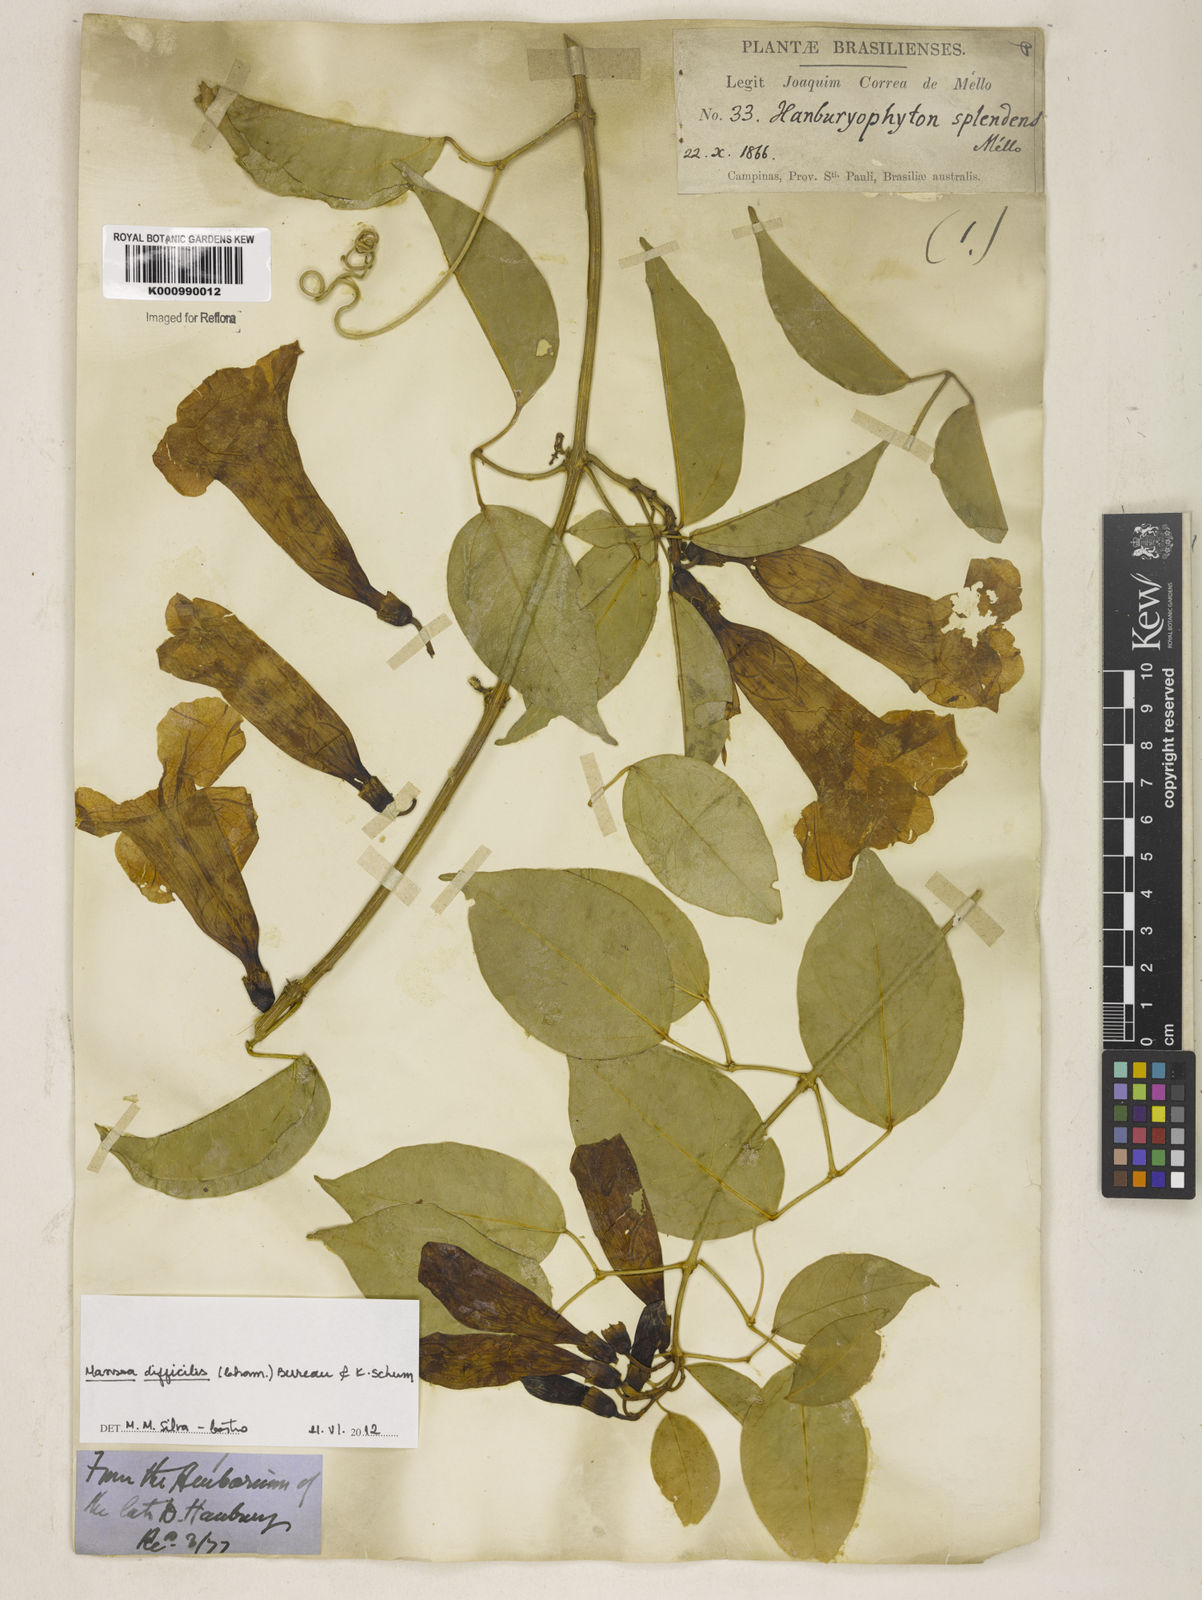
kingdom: Plantae
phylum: Tracheophyta
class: Magnoliopsida
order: Lamiales
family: Bignoniaceae
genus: Mansoa
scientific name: Mansoa difficilis
